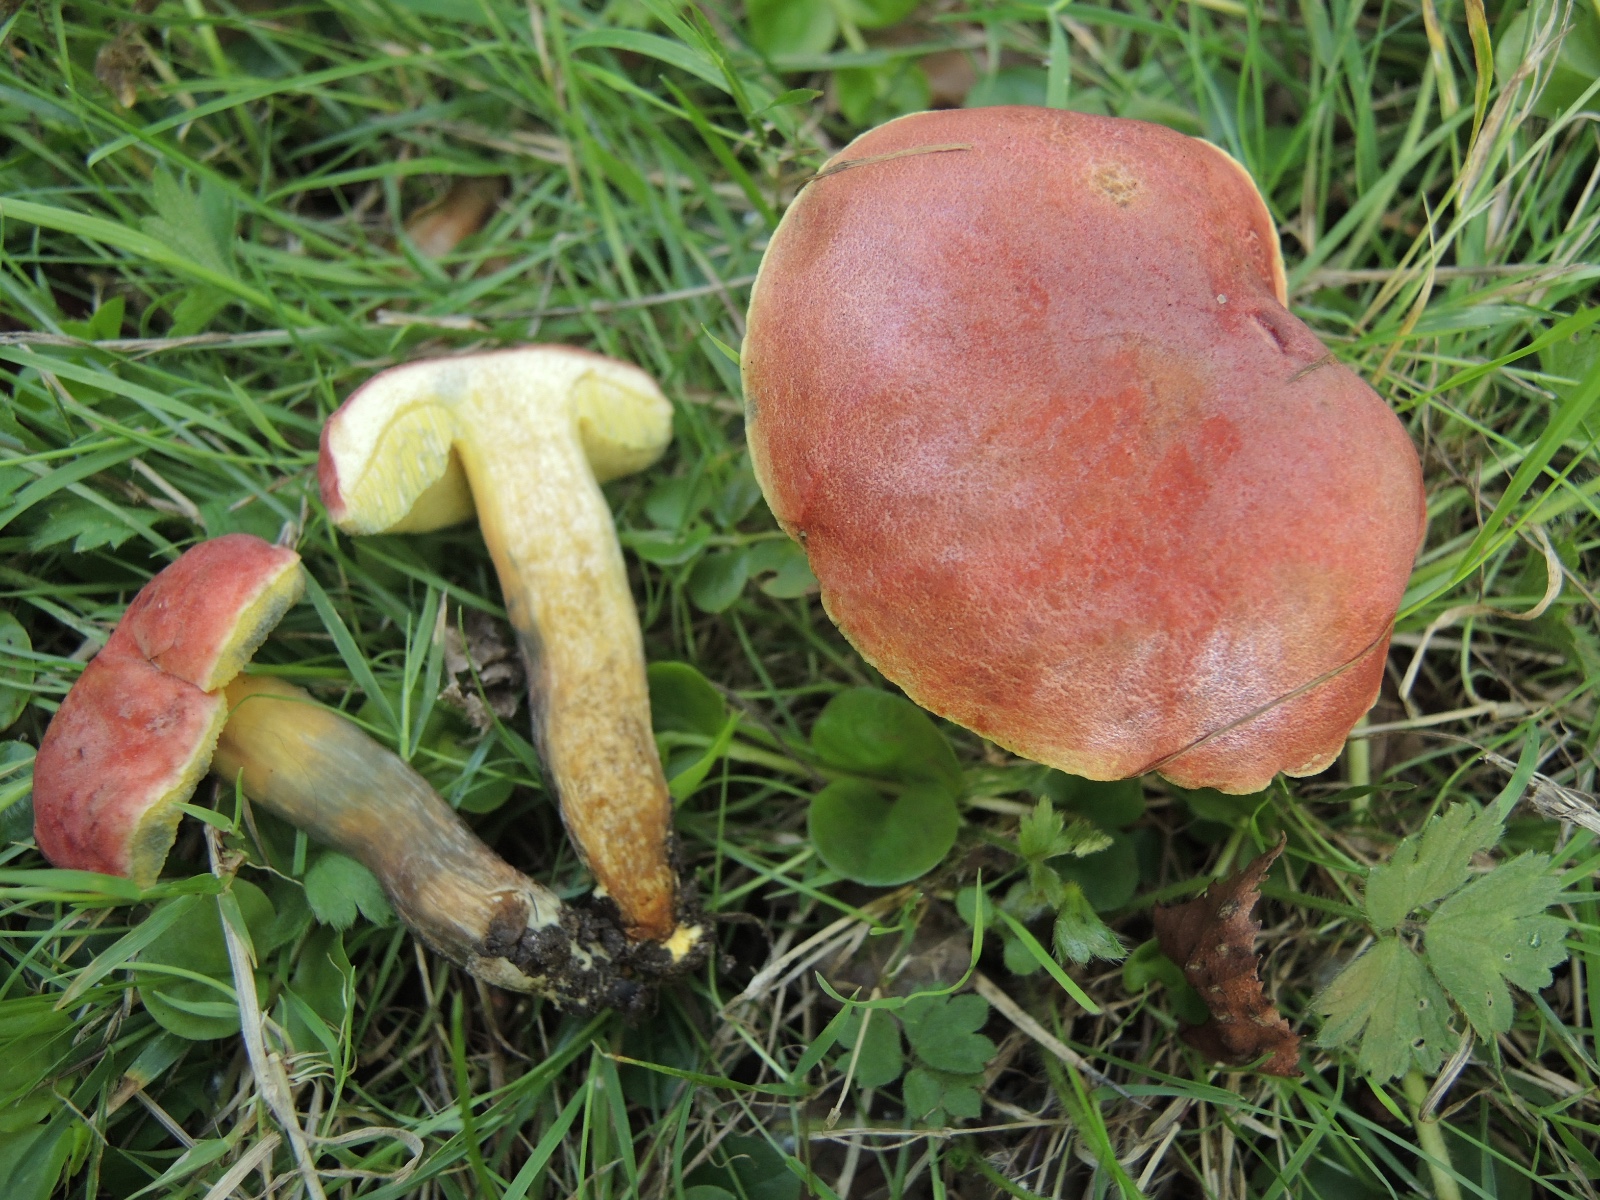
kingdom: Fungi
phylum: Basidiomycota
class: Agaricomycetes
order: Boletales
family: Boletaceae
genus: Hortiboletus
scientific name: Hortiboletus rubellus
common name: blodrød rørhat
